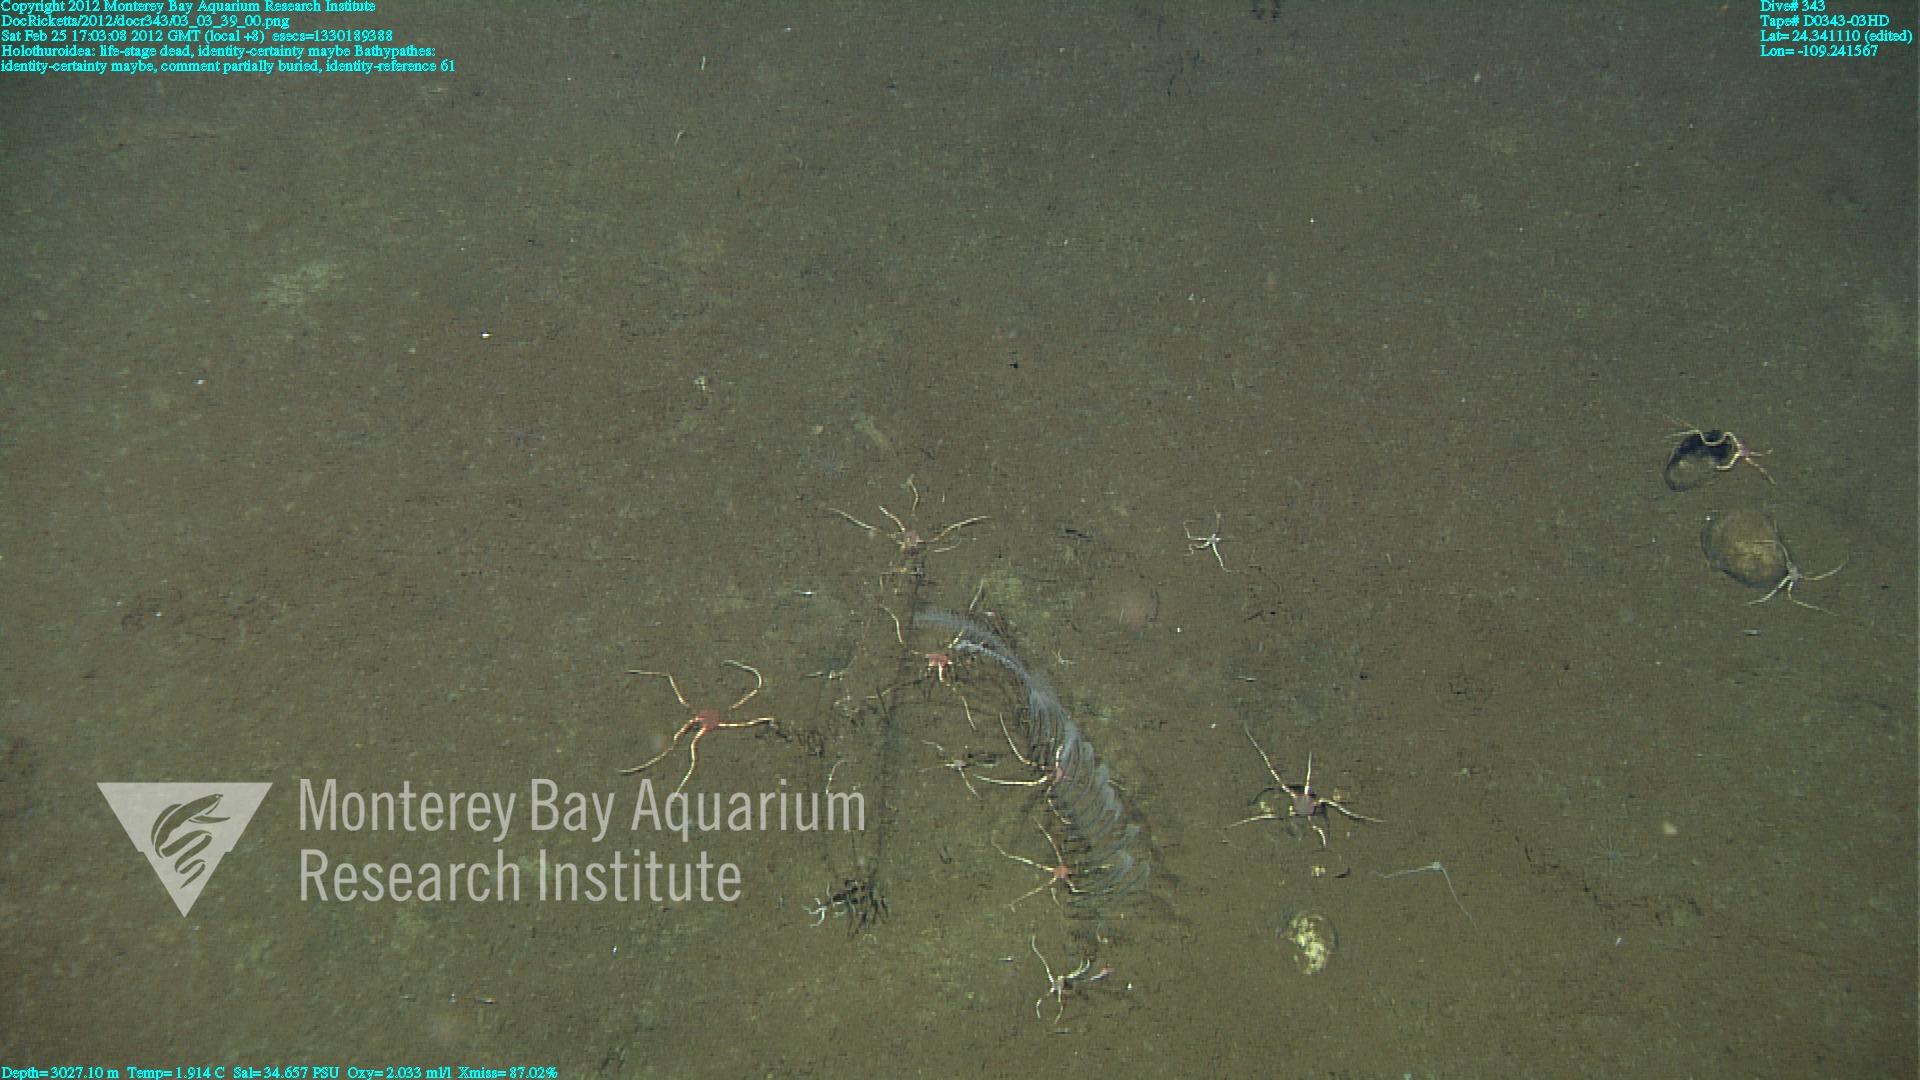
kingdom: Animalia
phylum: Cnidaria
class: Anthozoa
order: Antipatharia
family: Schizopathidae
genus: Bathypathes
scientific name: Bathypathes
